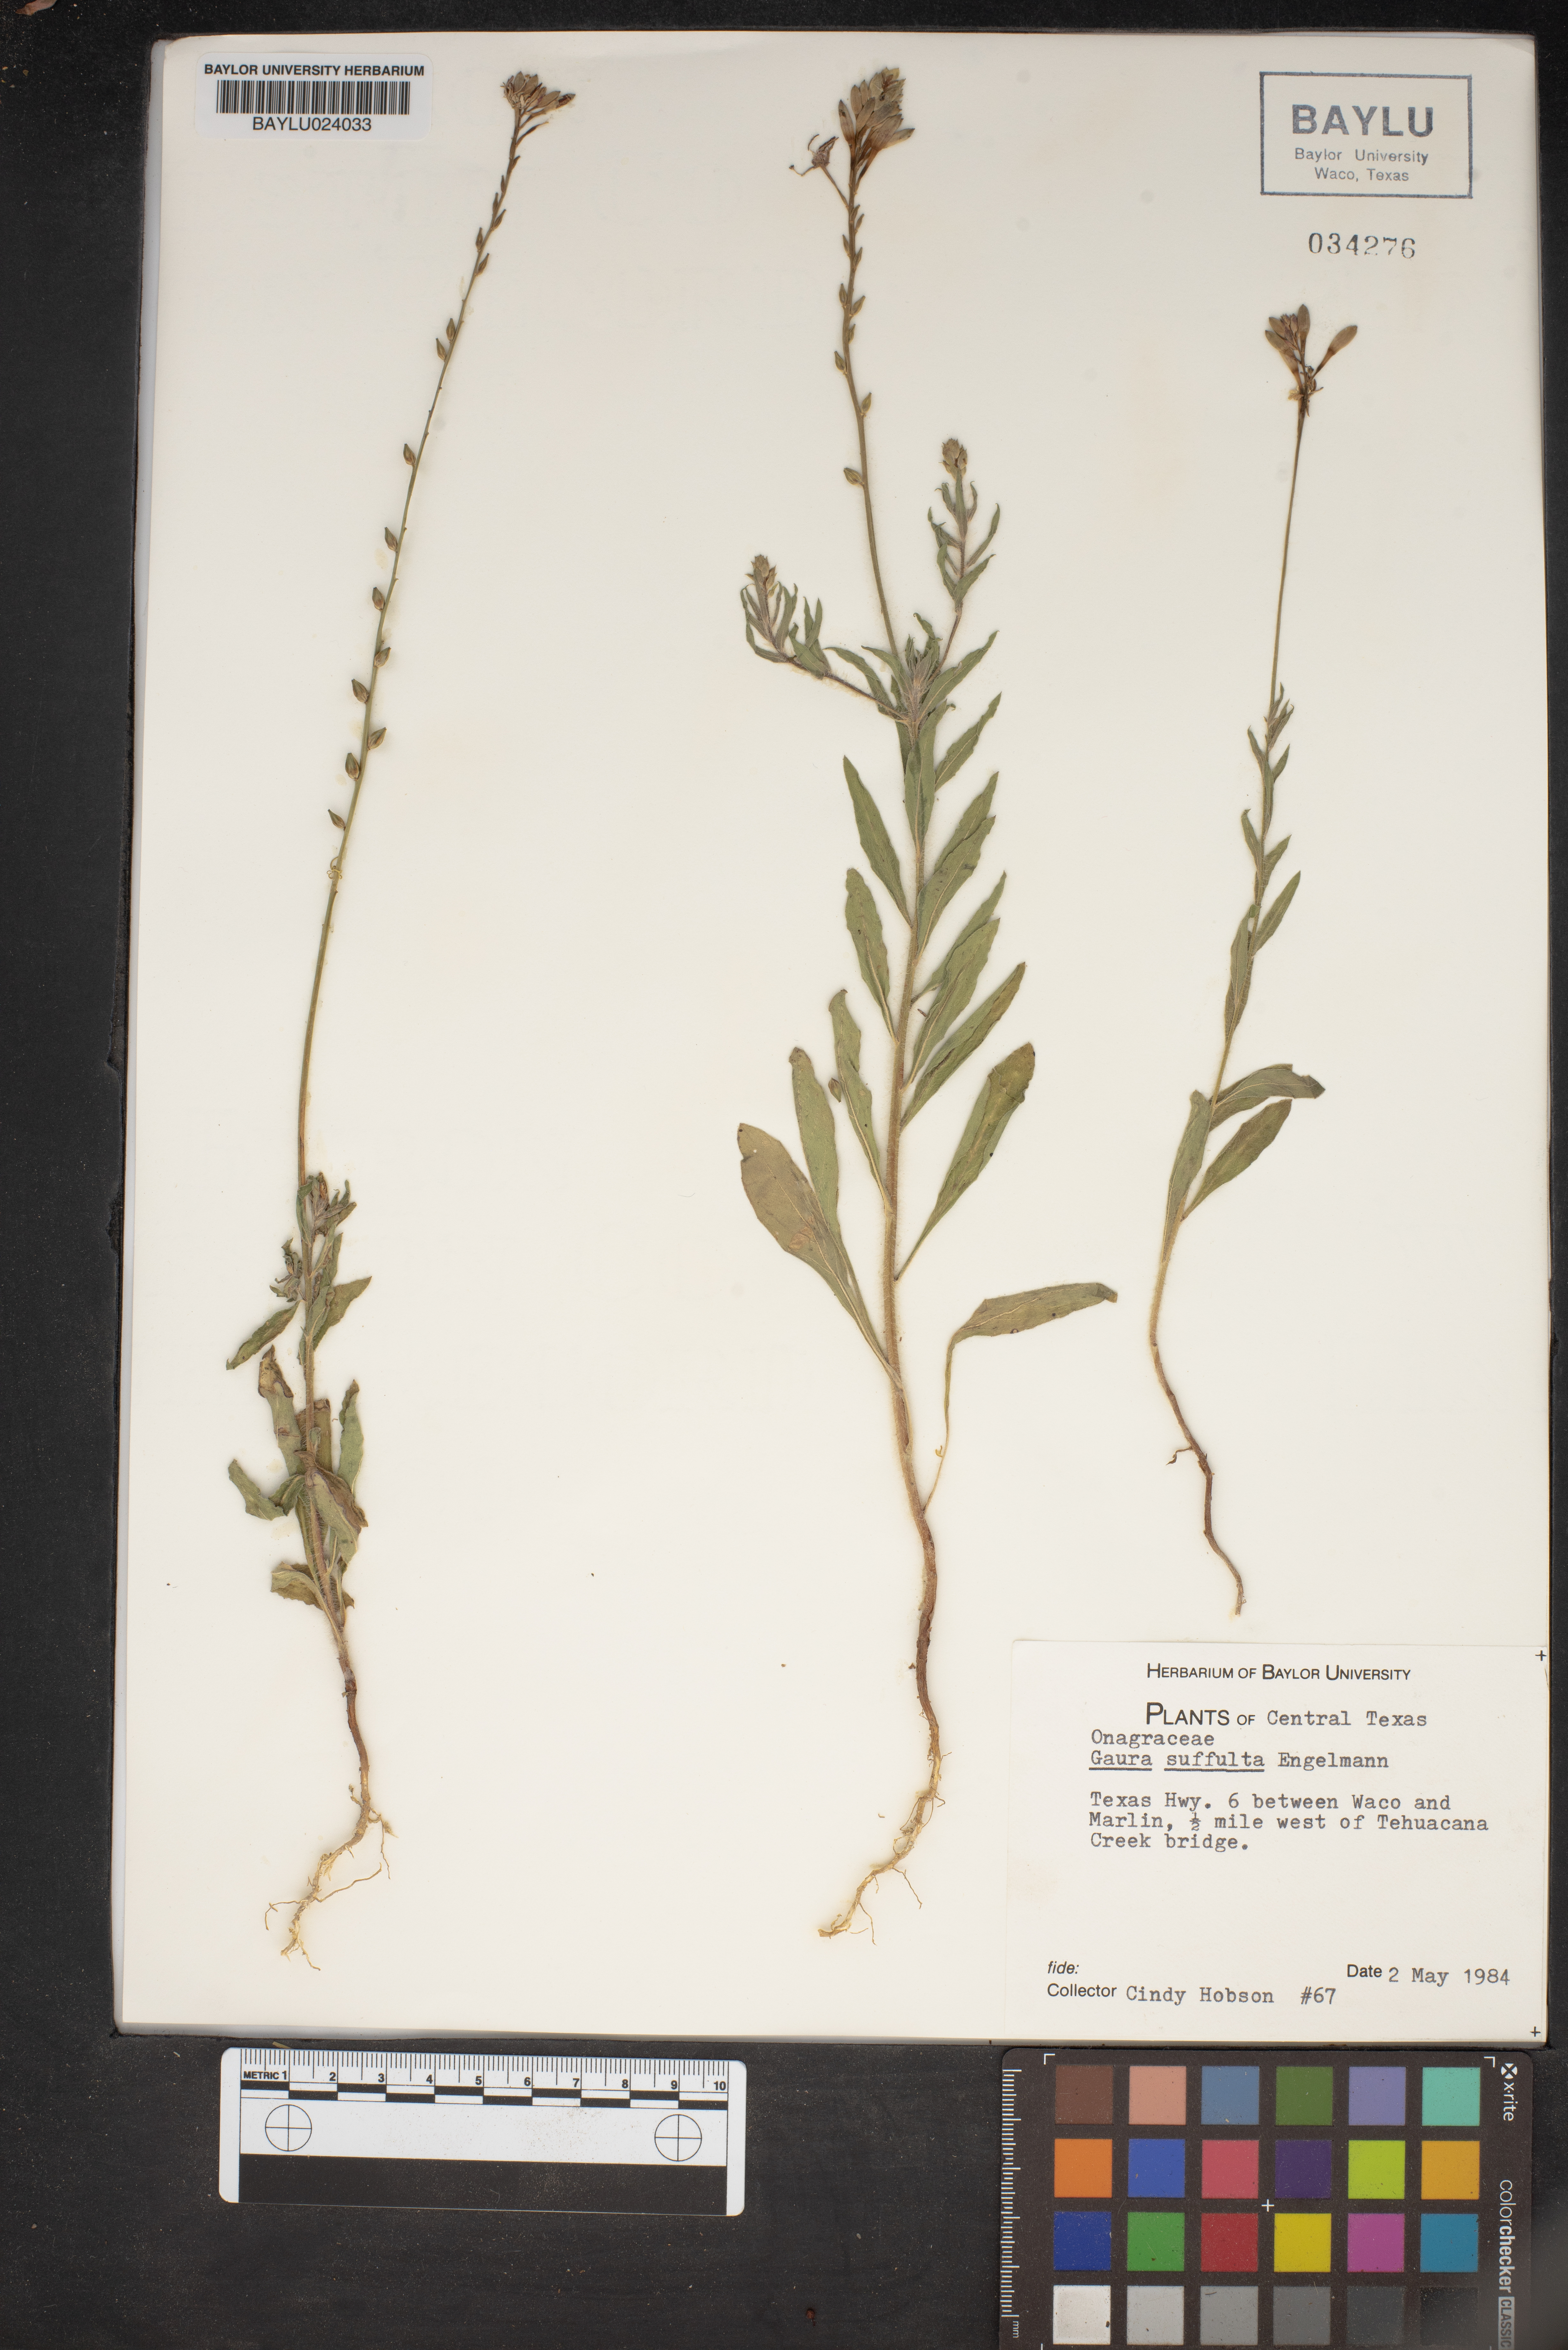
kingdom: Plantae
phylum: Tracheophyta
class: Magnoliopsida
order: Myrtales
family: Onagraceae
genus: Oenothera
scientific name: Oenothera Gaura suffulta
